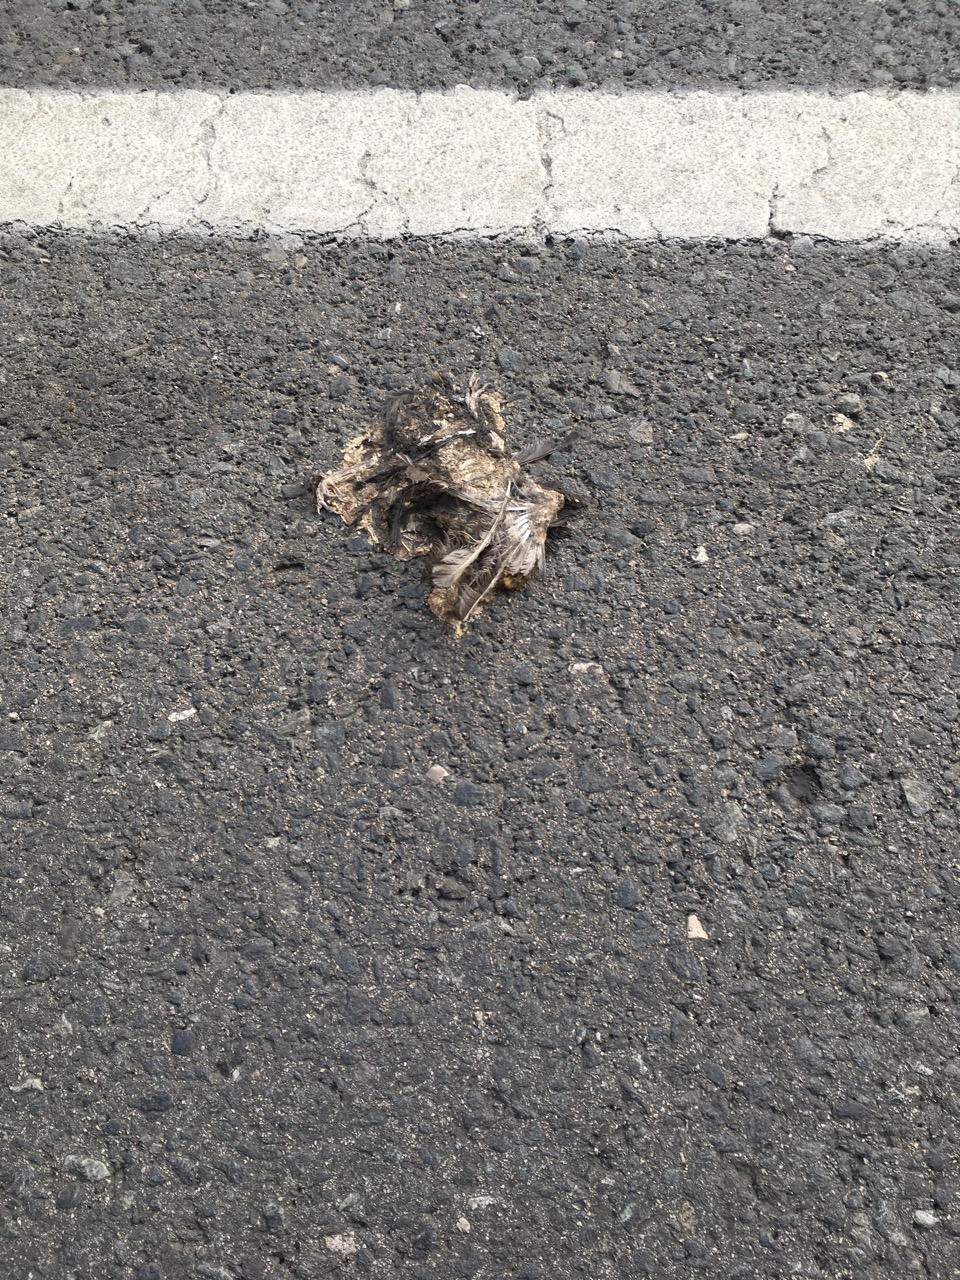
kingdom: Animalia
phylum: Chordata
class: Aves
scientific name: Aves
